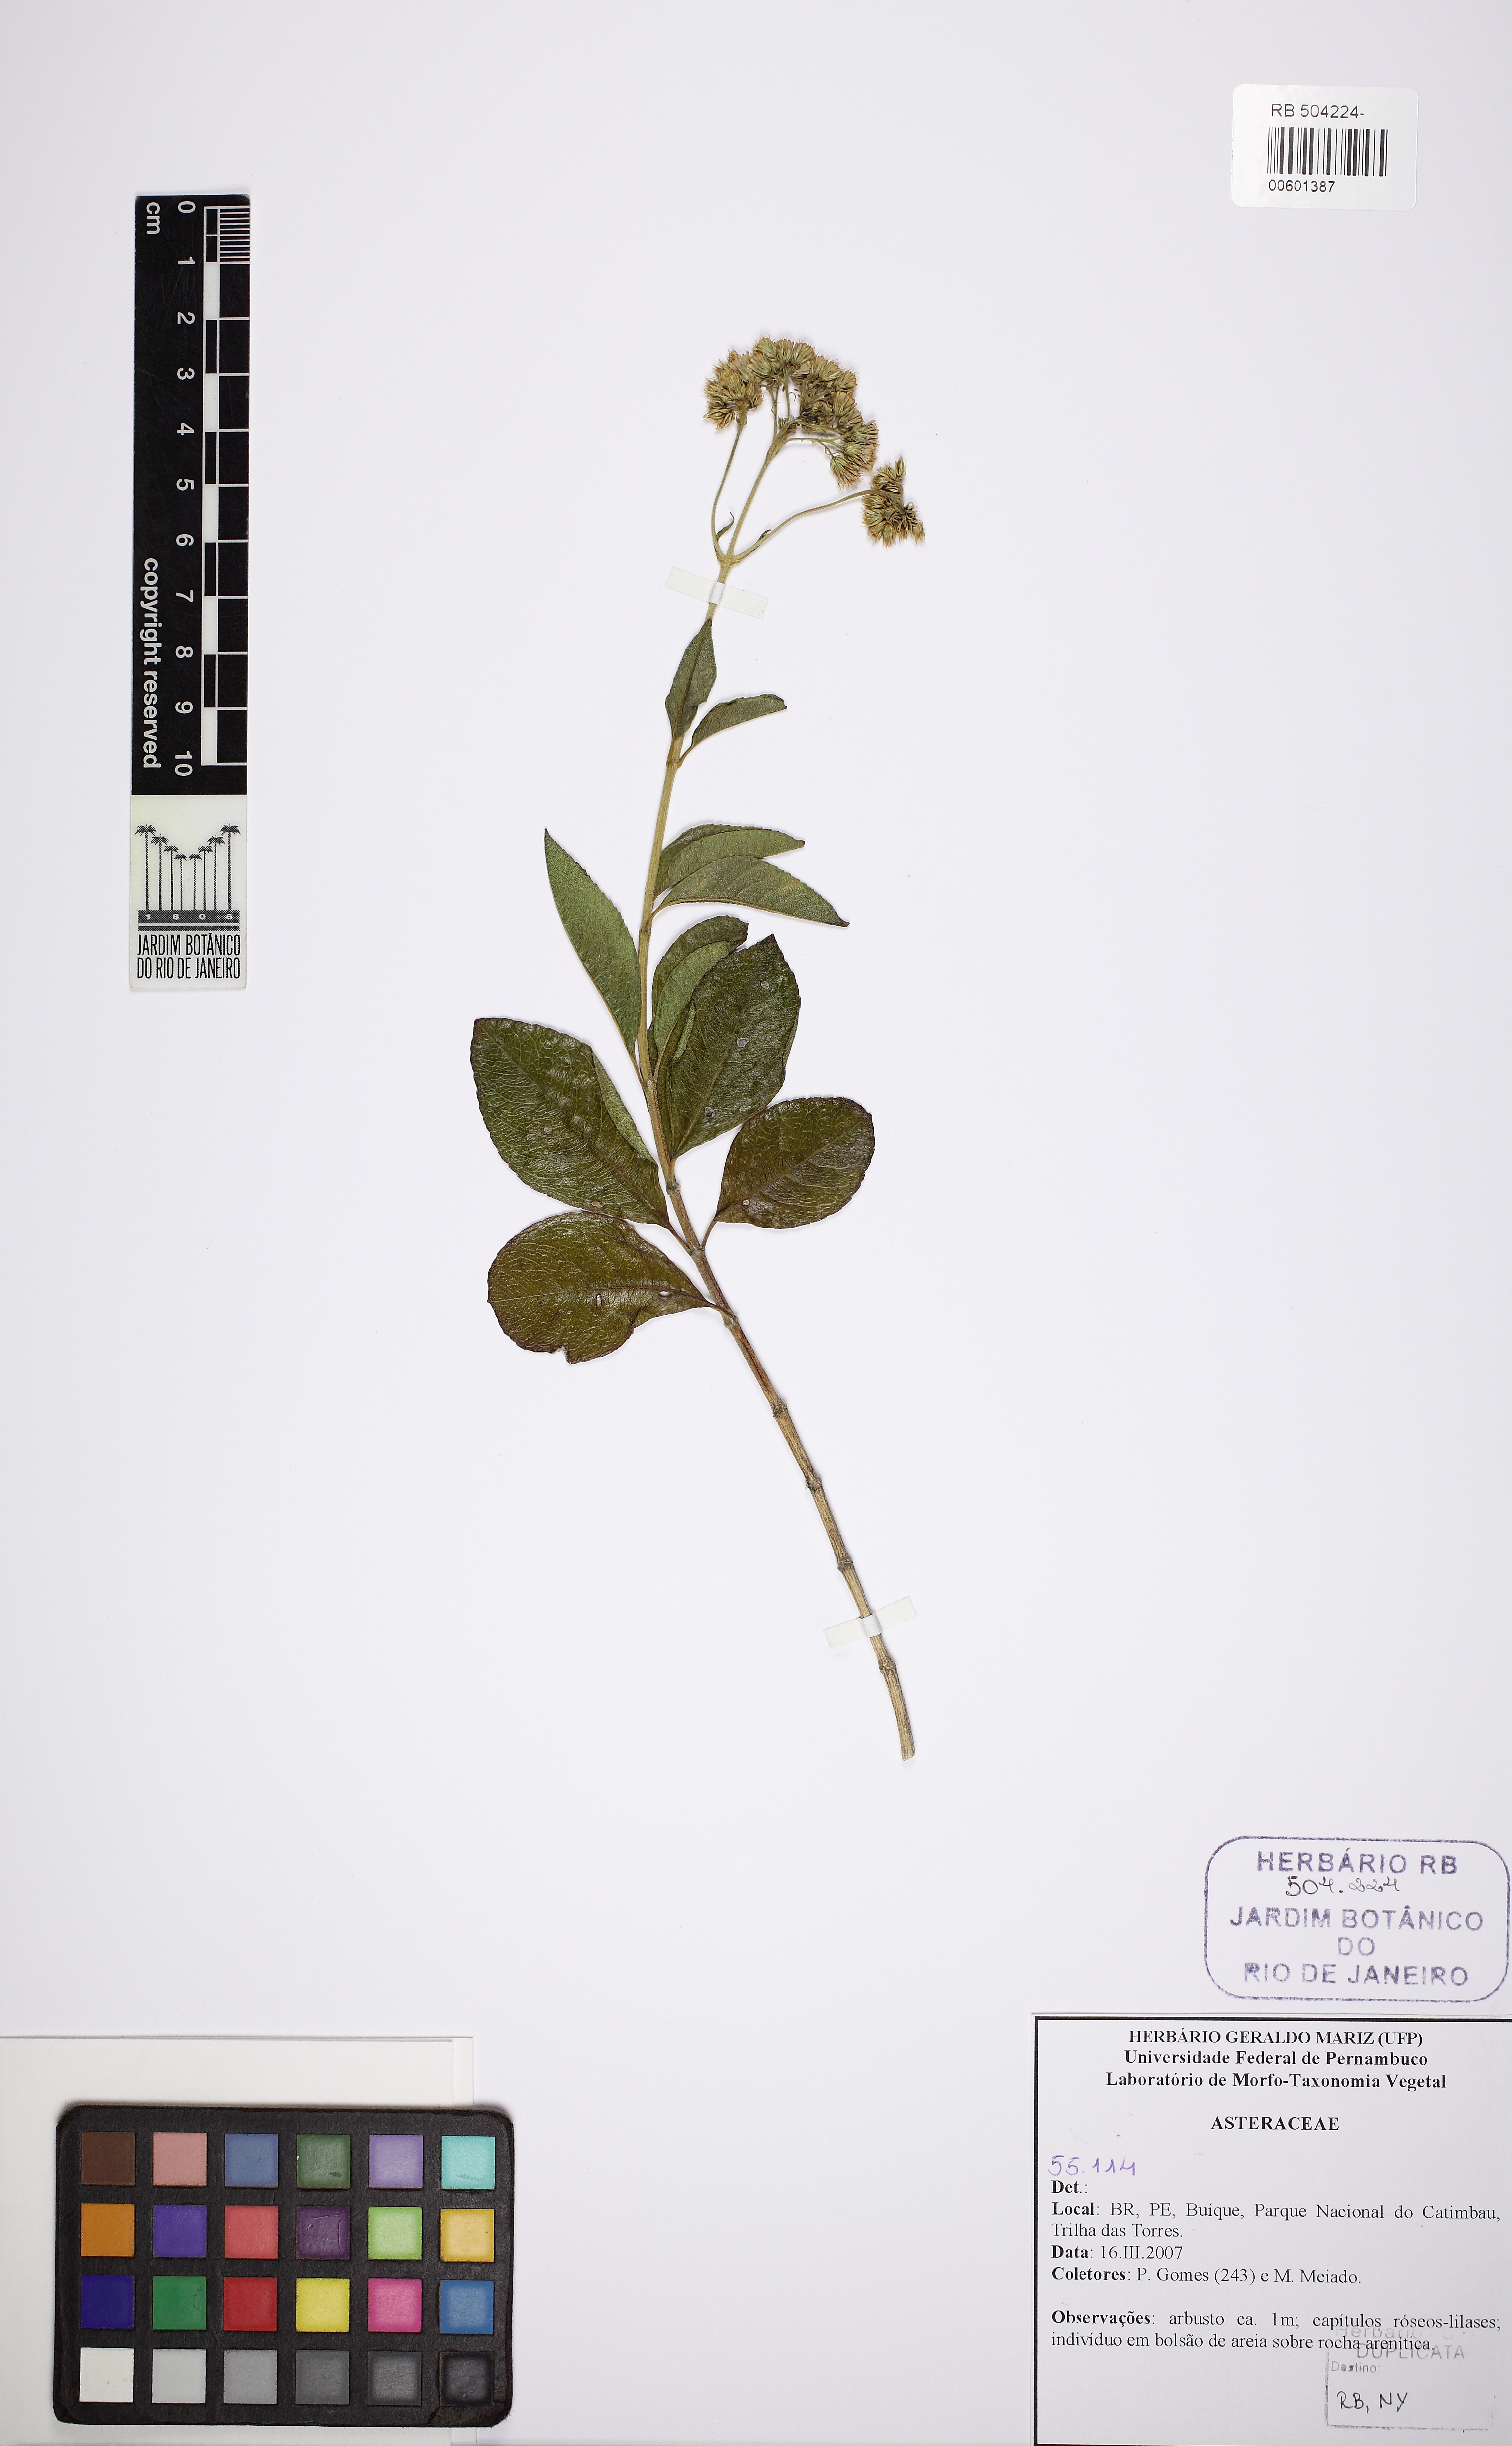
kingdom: Plantae
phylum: Tracheophyta
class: Magnoliopsida
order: Asterales
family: Asteraceae
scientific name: Asteraceae
